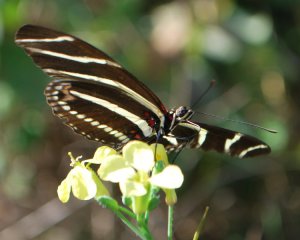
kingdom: Animalia
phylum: Arthropoda
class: Insecta
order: Lepidoptera
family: Nymphalidae
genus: Heliconius
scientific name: Heliconius charithonia
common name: Zebra Longwing
